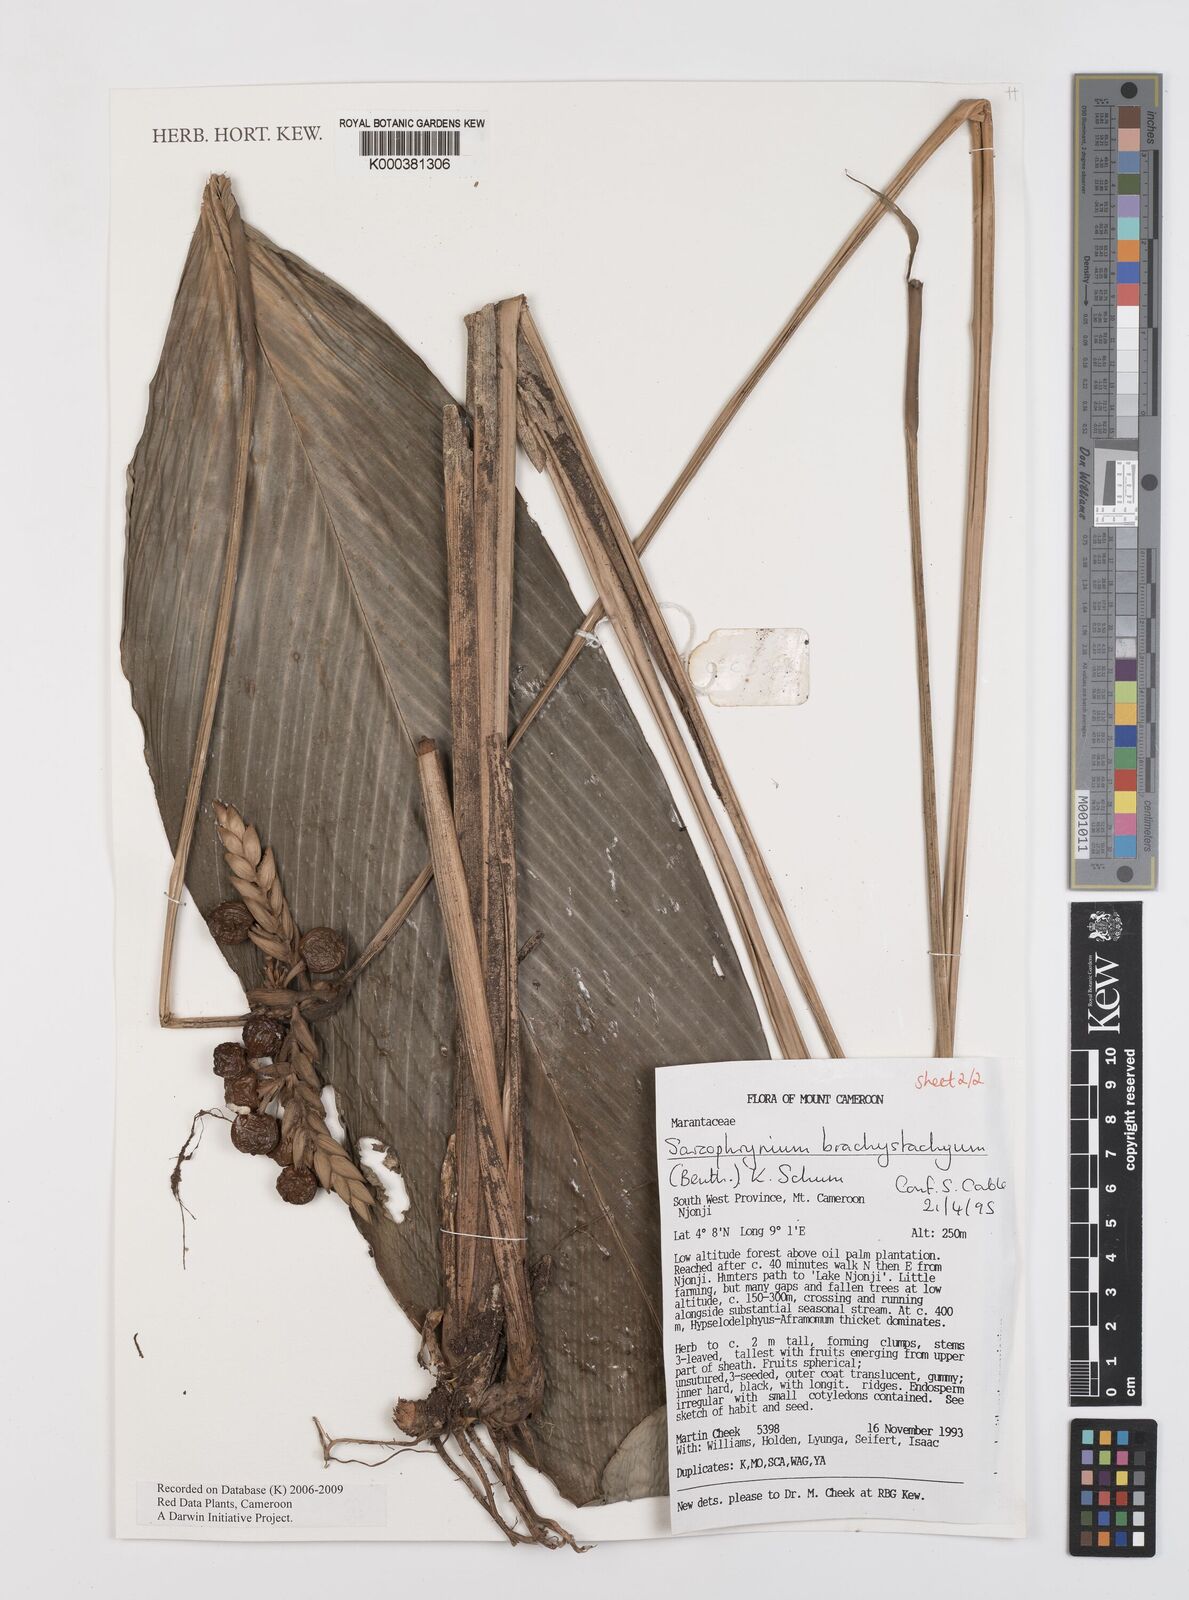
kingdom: Plantae
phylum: Tracheophyta
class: Liliopsida
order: Zingiberales
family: Marantaceae
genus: Sarcophrynium
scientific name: Sarcophrynium
